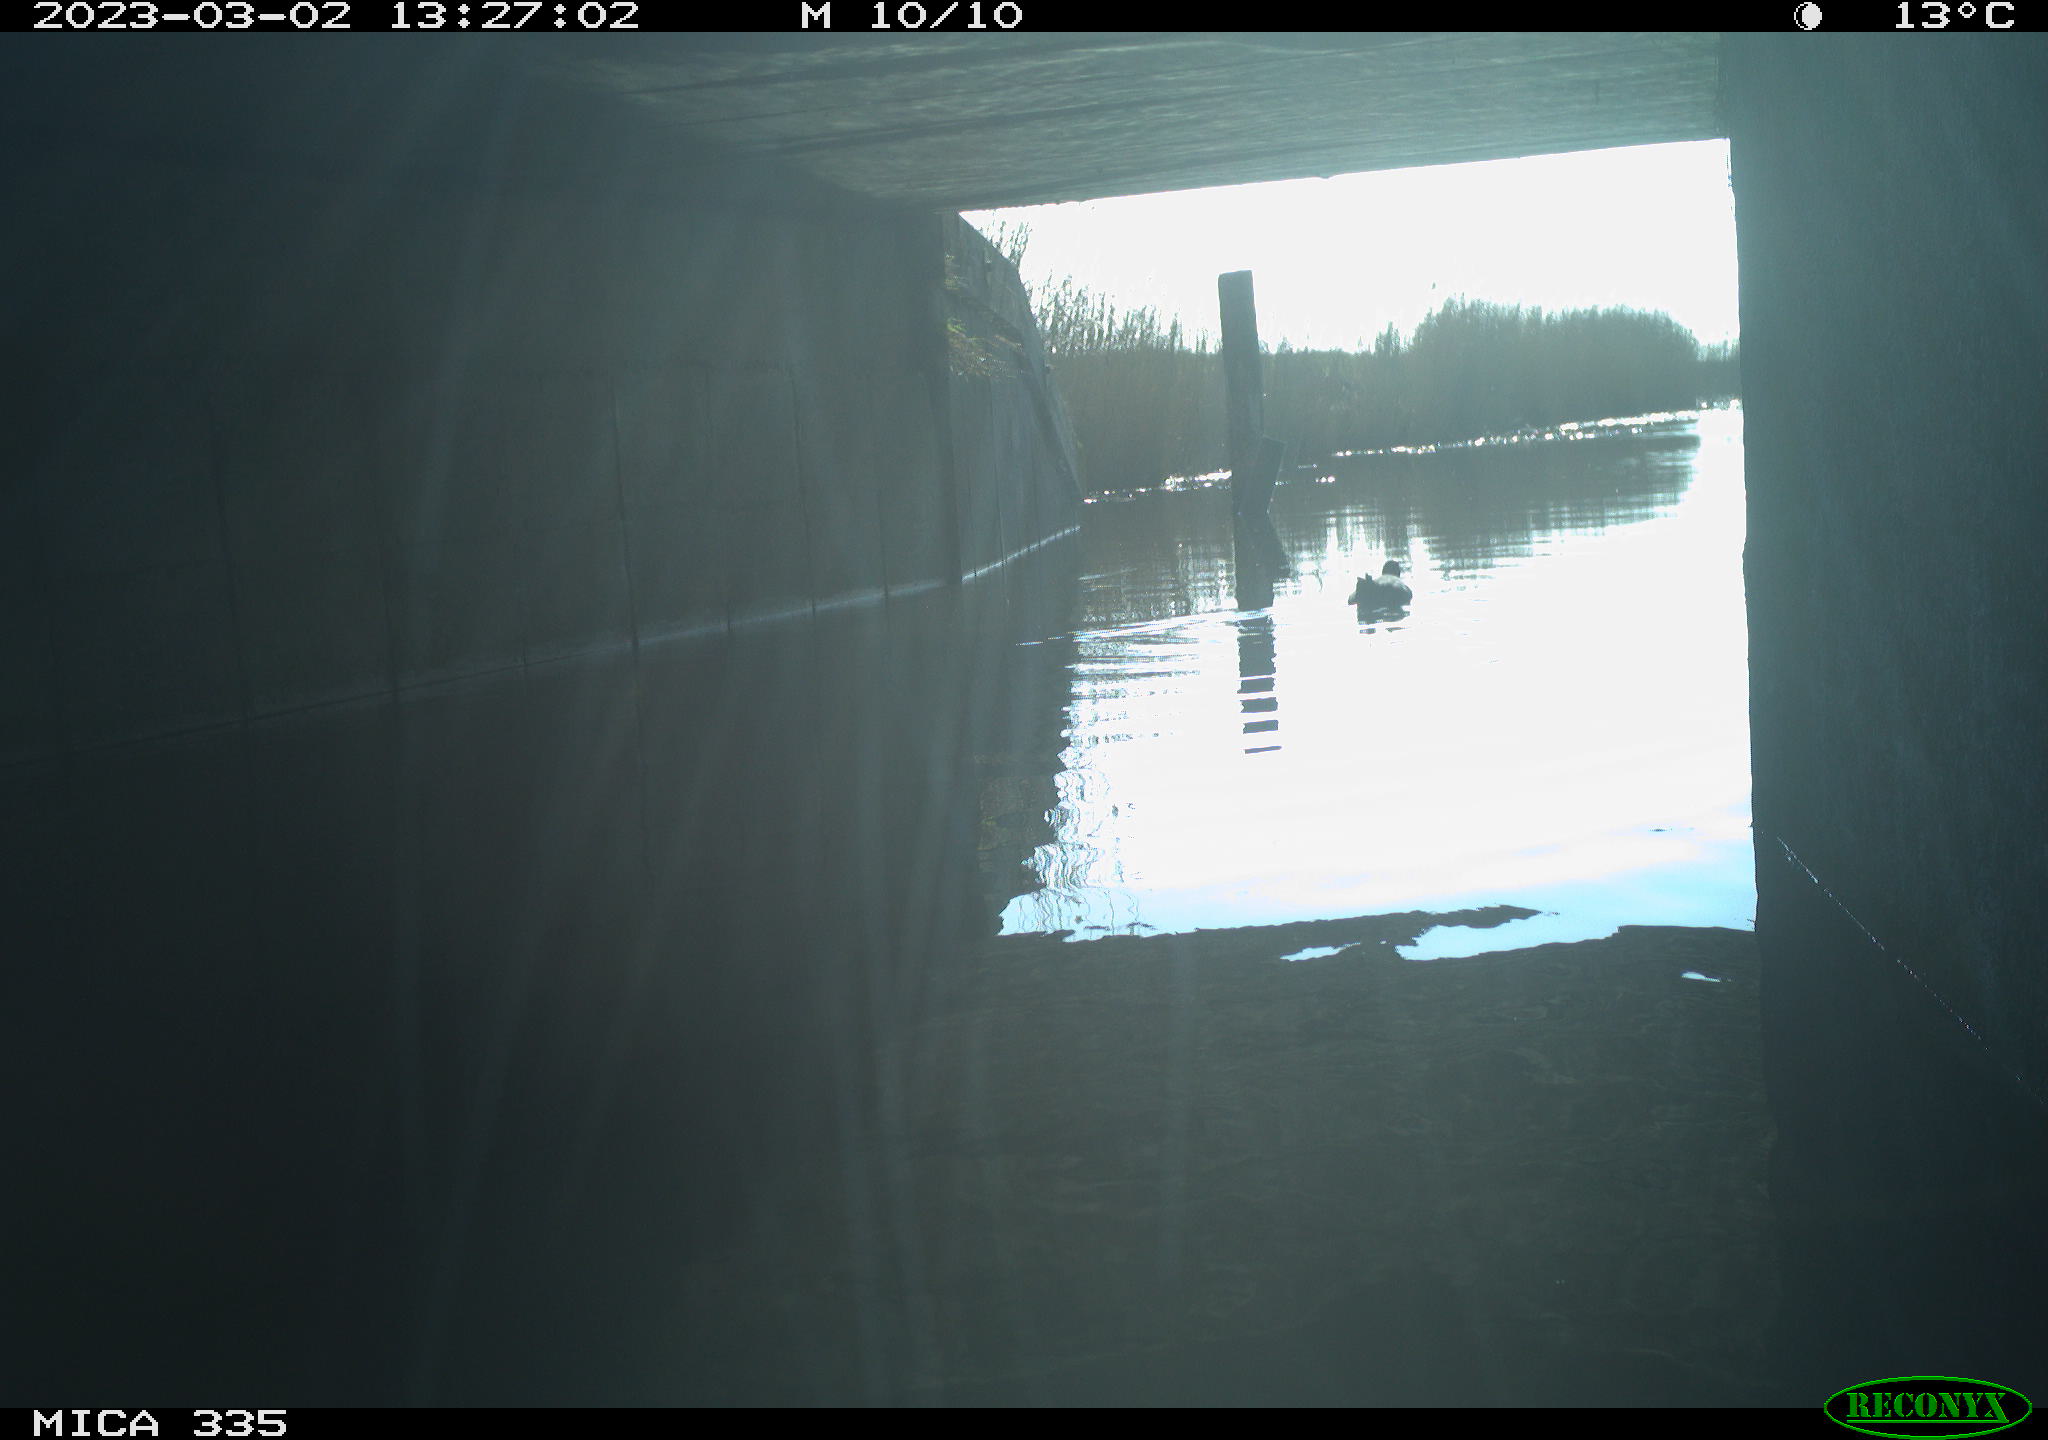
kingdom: Animalia
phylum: Chordata
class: Aves
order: Gruiformes
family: Rallidae
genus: Fulica
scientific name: Fulica atra
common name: Eurasian coot
